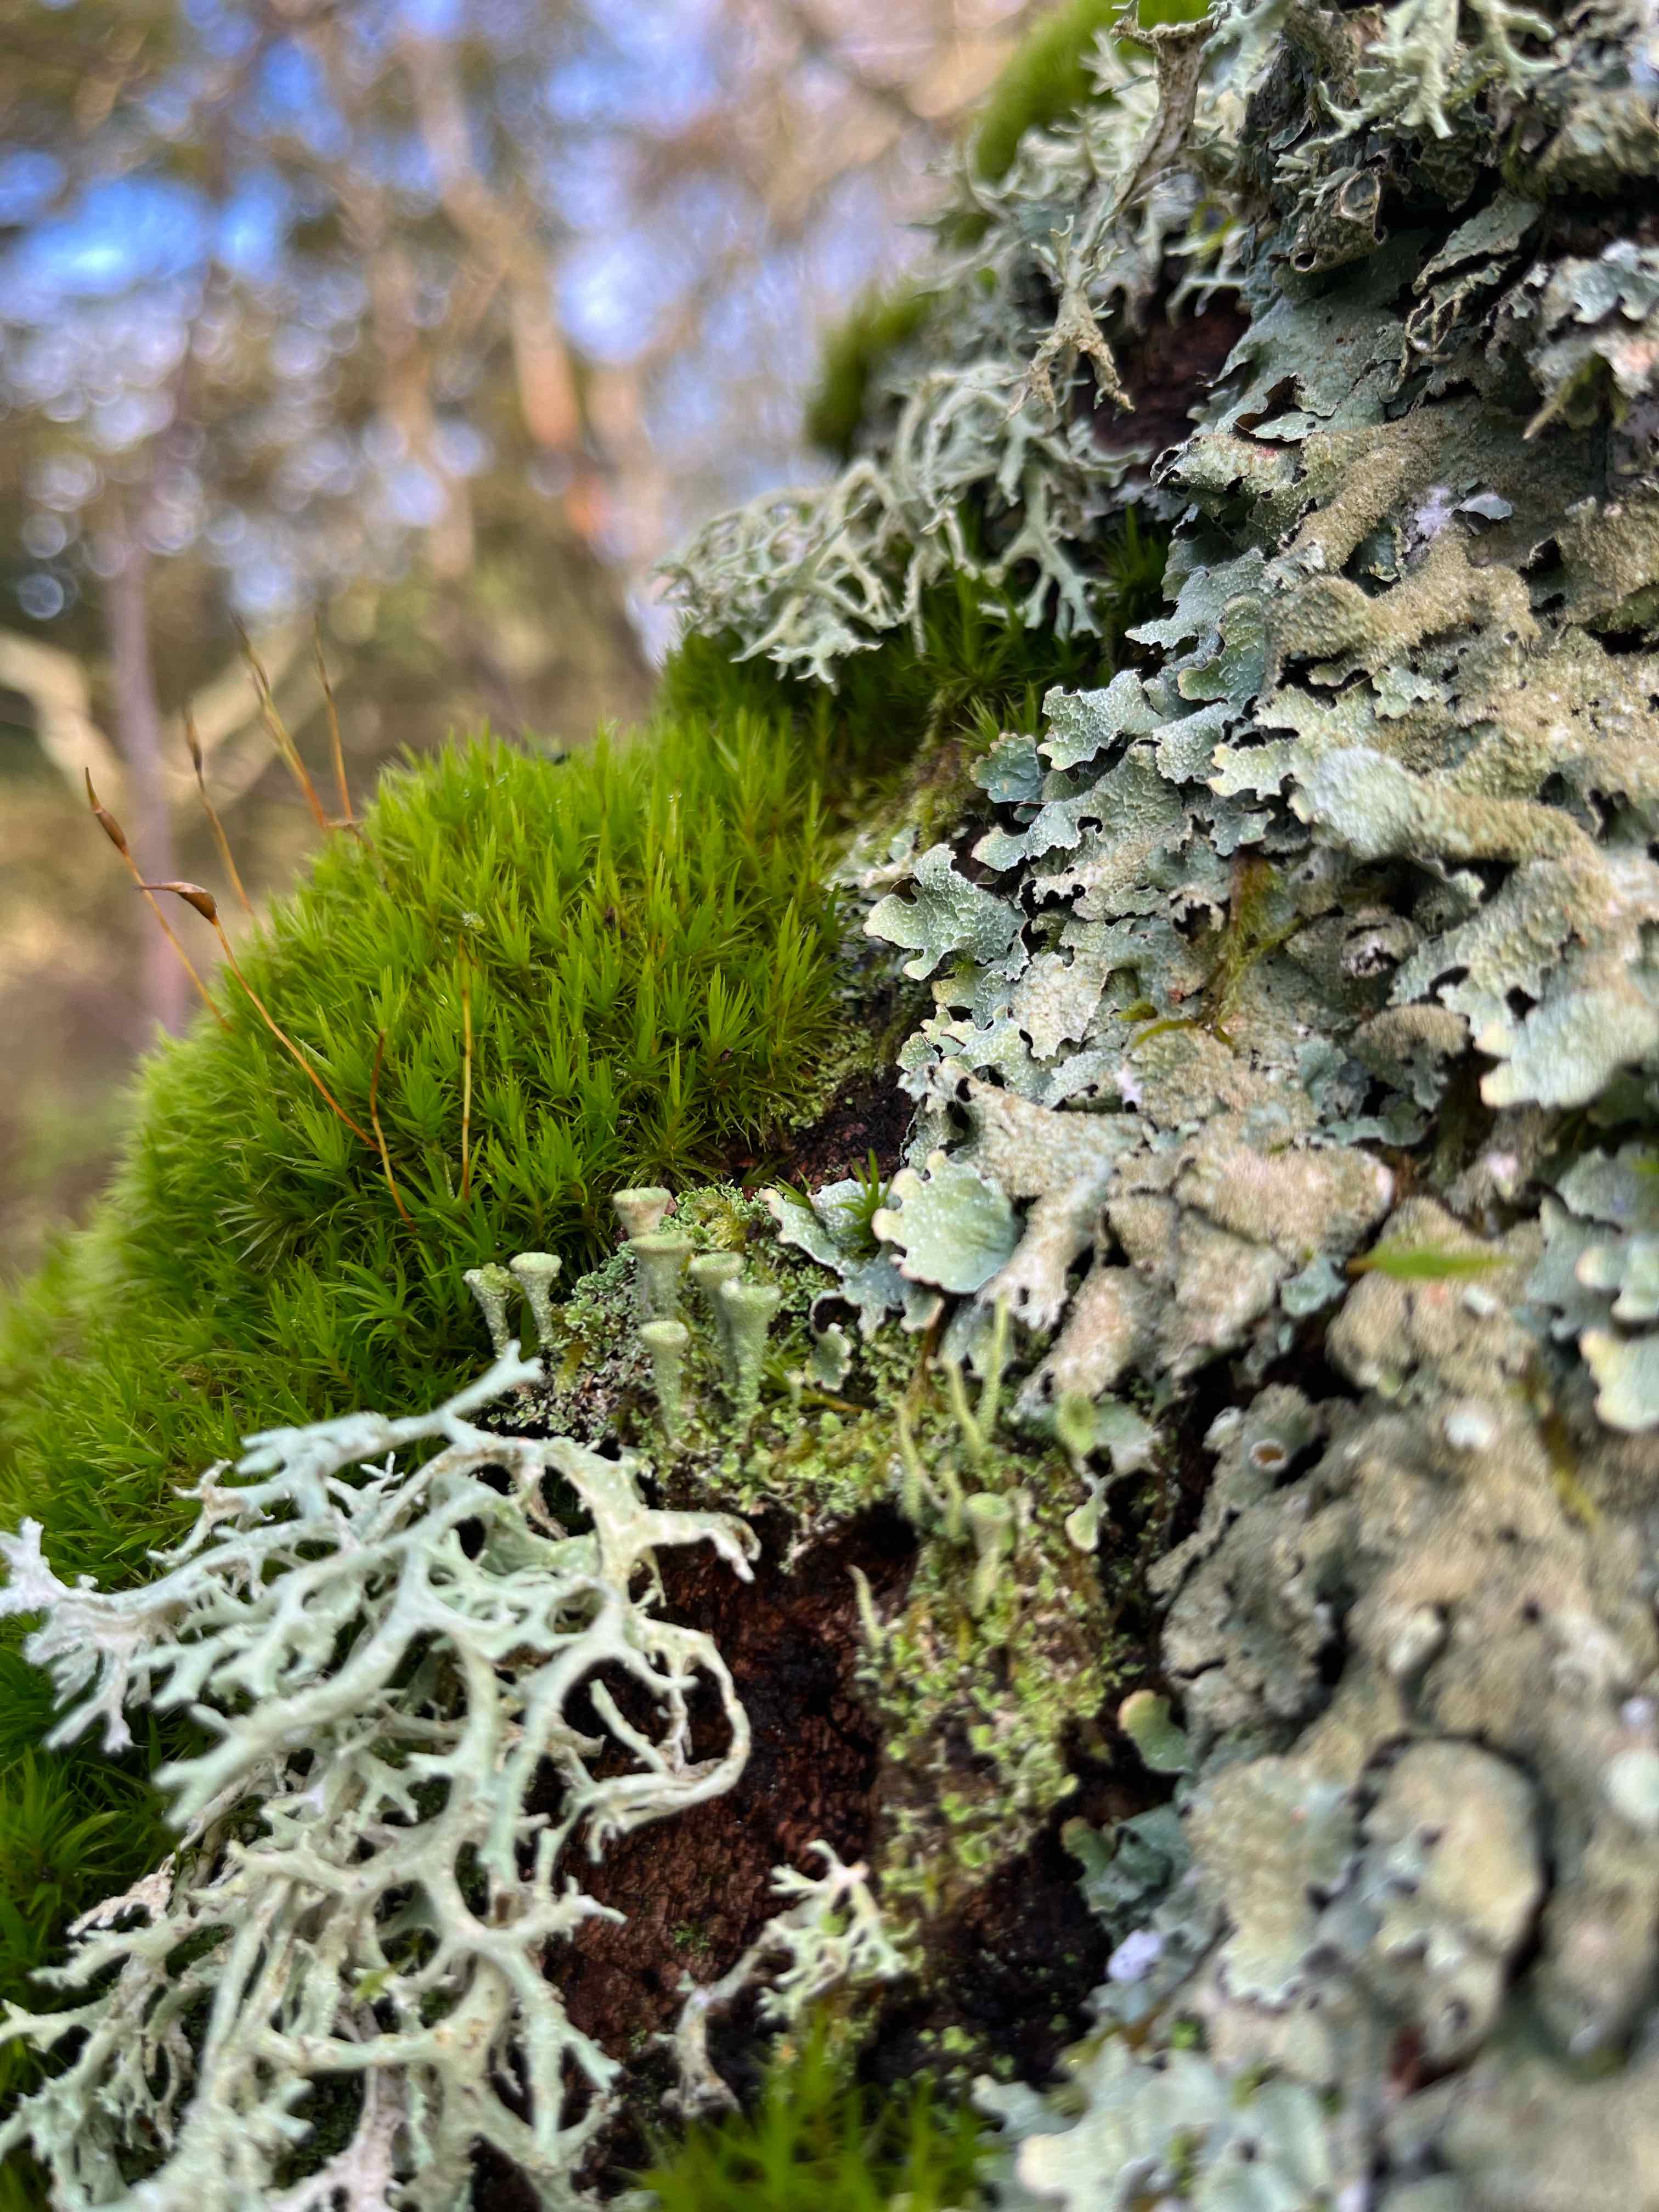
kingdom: Fungi
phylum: Ascomycota
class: Lecanoromycetes
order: Lecanorales
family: Parmeliaceae
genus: Parmelia
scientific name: Parmelia sulcata
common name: rynket skållav
